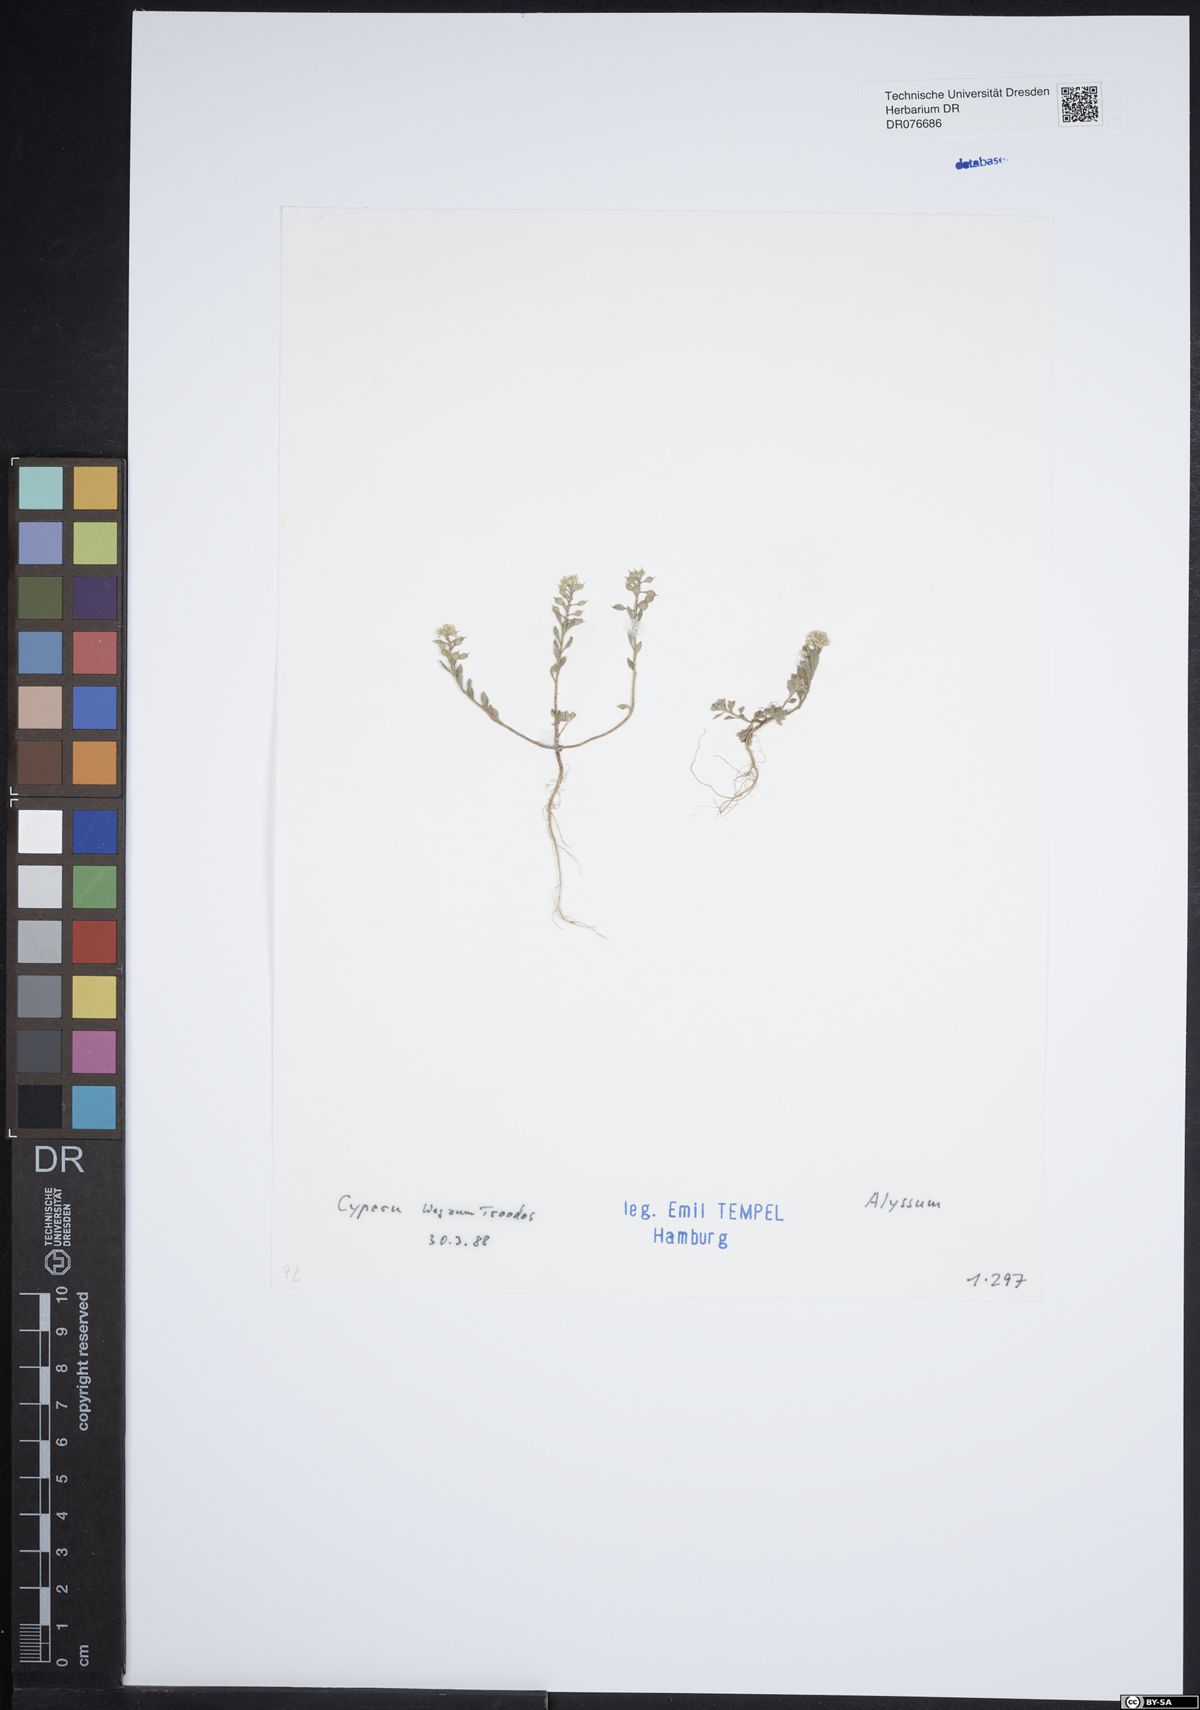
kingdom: Plantae
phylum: Tracheophyta
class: Magnoliopsida
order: Brassicales
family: Brassicaceae
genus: Alyssum
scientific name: Alyssum
